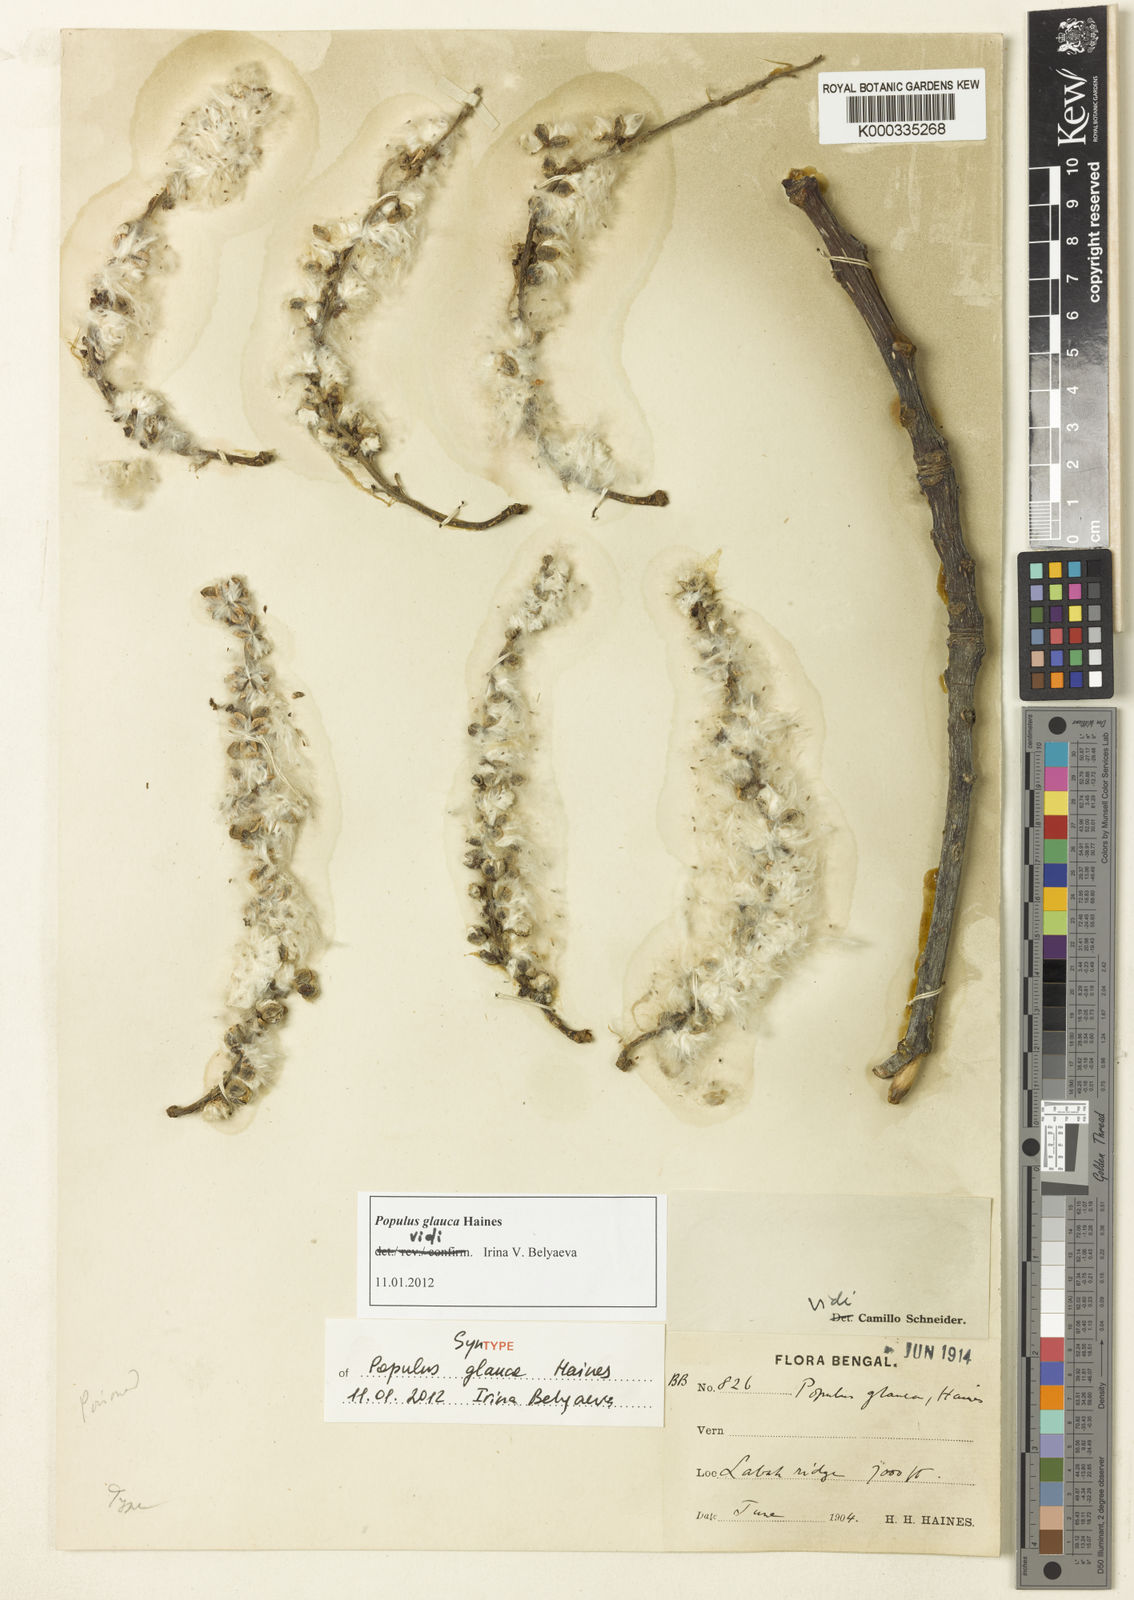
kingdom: Plantae
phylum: Tracheophyta
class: Magnoliopsida
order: Malpighiales
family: Salicaceae
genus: Populus
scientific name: Populus glauca
